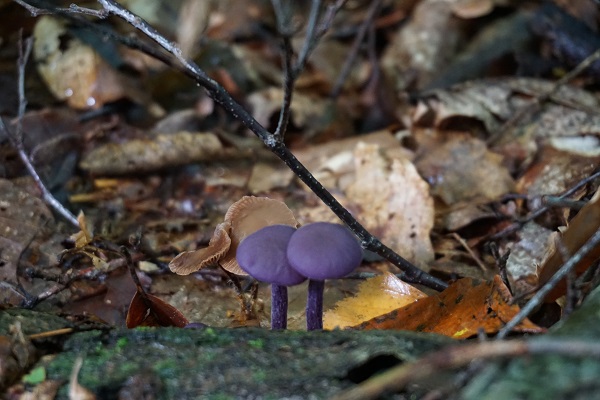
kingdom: Fungi
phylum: Basidiomycota
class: Agaricomycetes
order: Agaricales
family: Hydnangiaceae
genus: Laccaria
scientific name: Laccaria amethystina
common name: violet ametysthat
